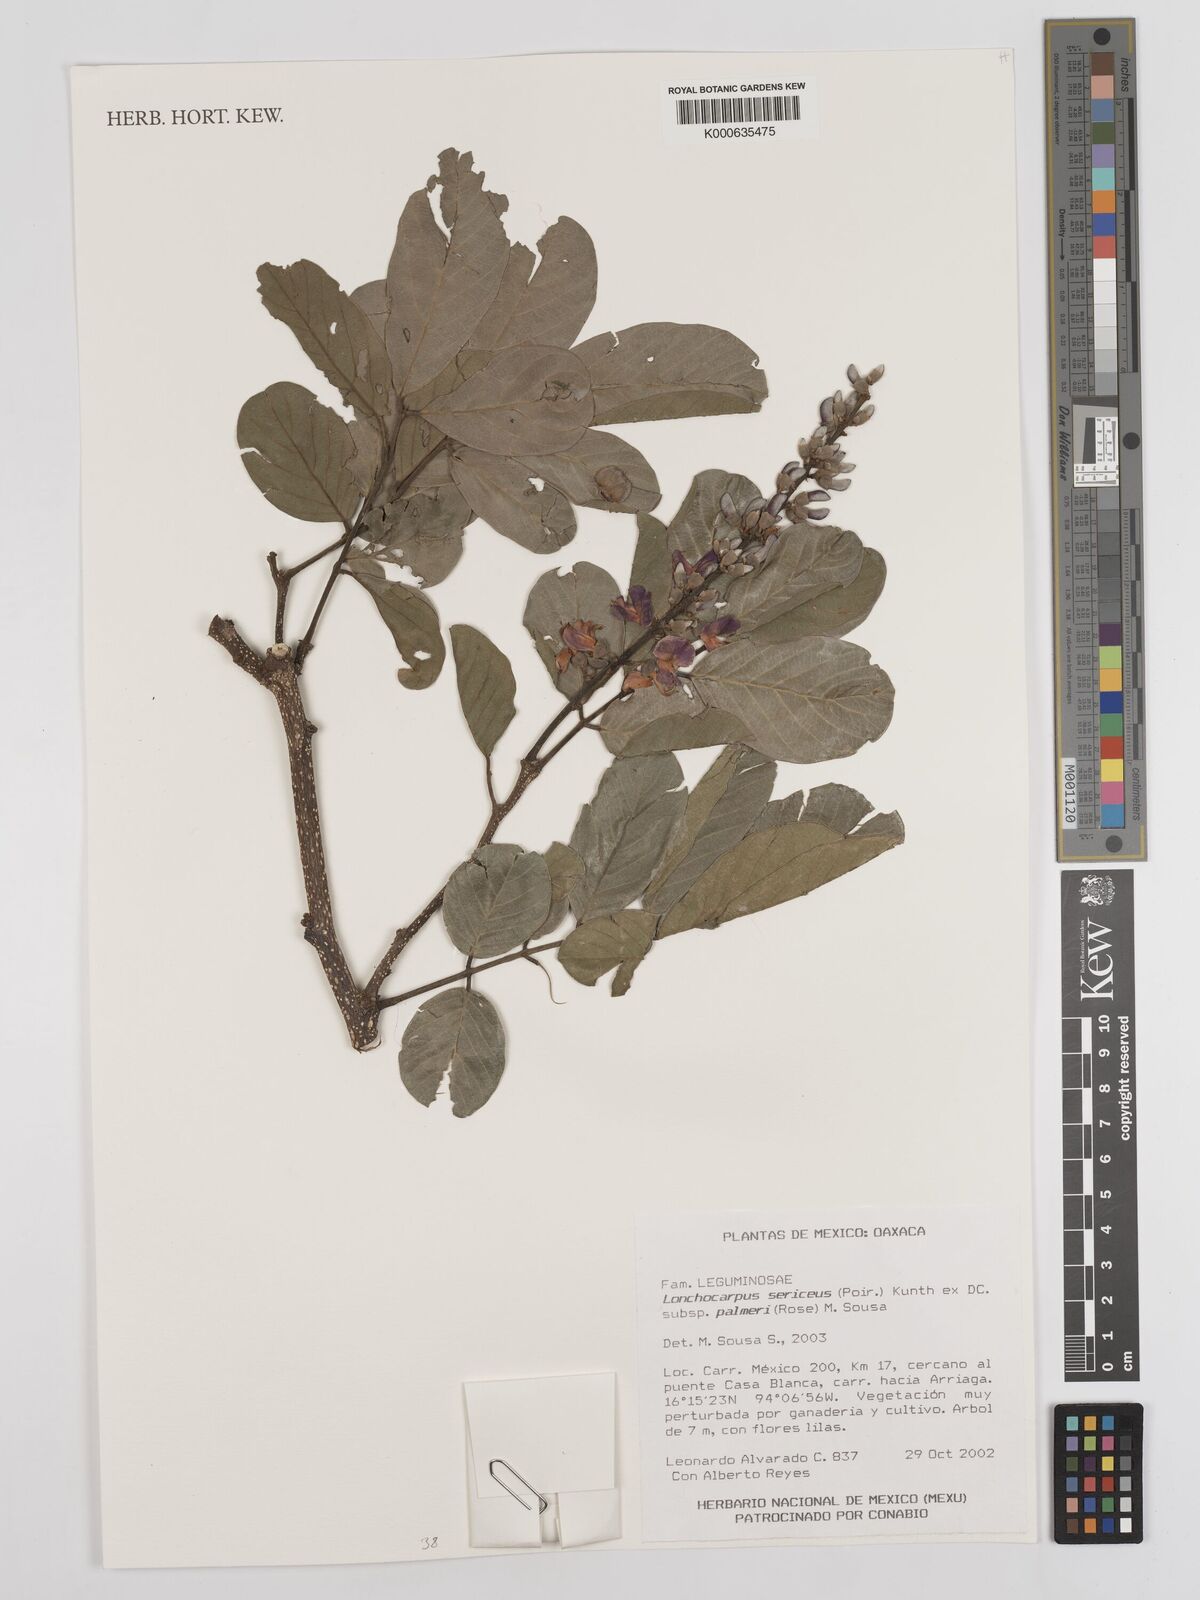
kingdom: Plantae
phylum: Tracheophyta
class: Magnoliopsida
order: Fabales
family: Fabaceae
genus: Lonchocarpus
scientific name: Lonchocarpus palmeri
